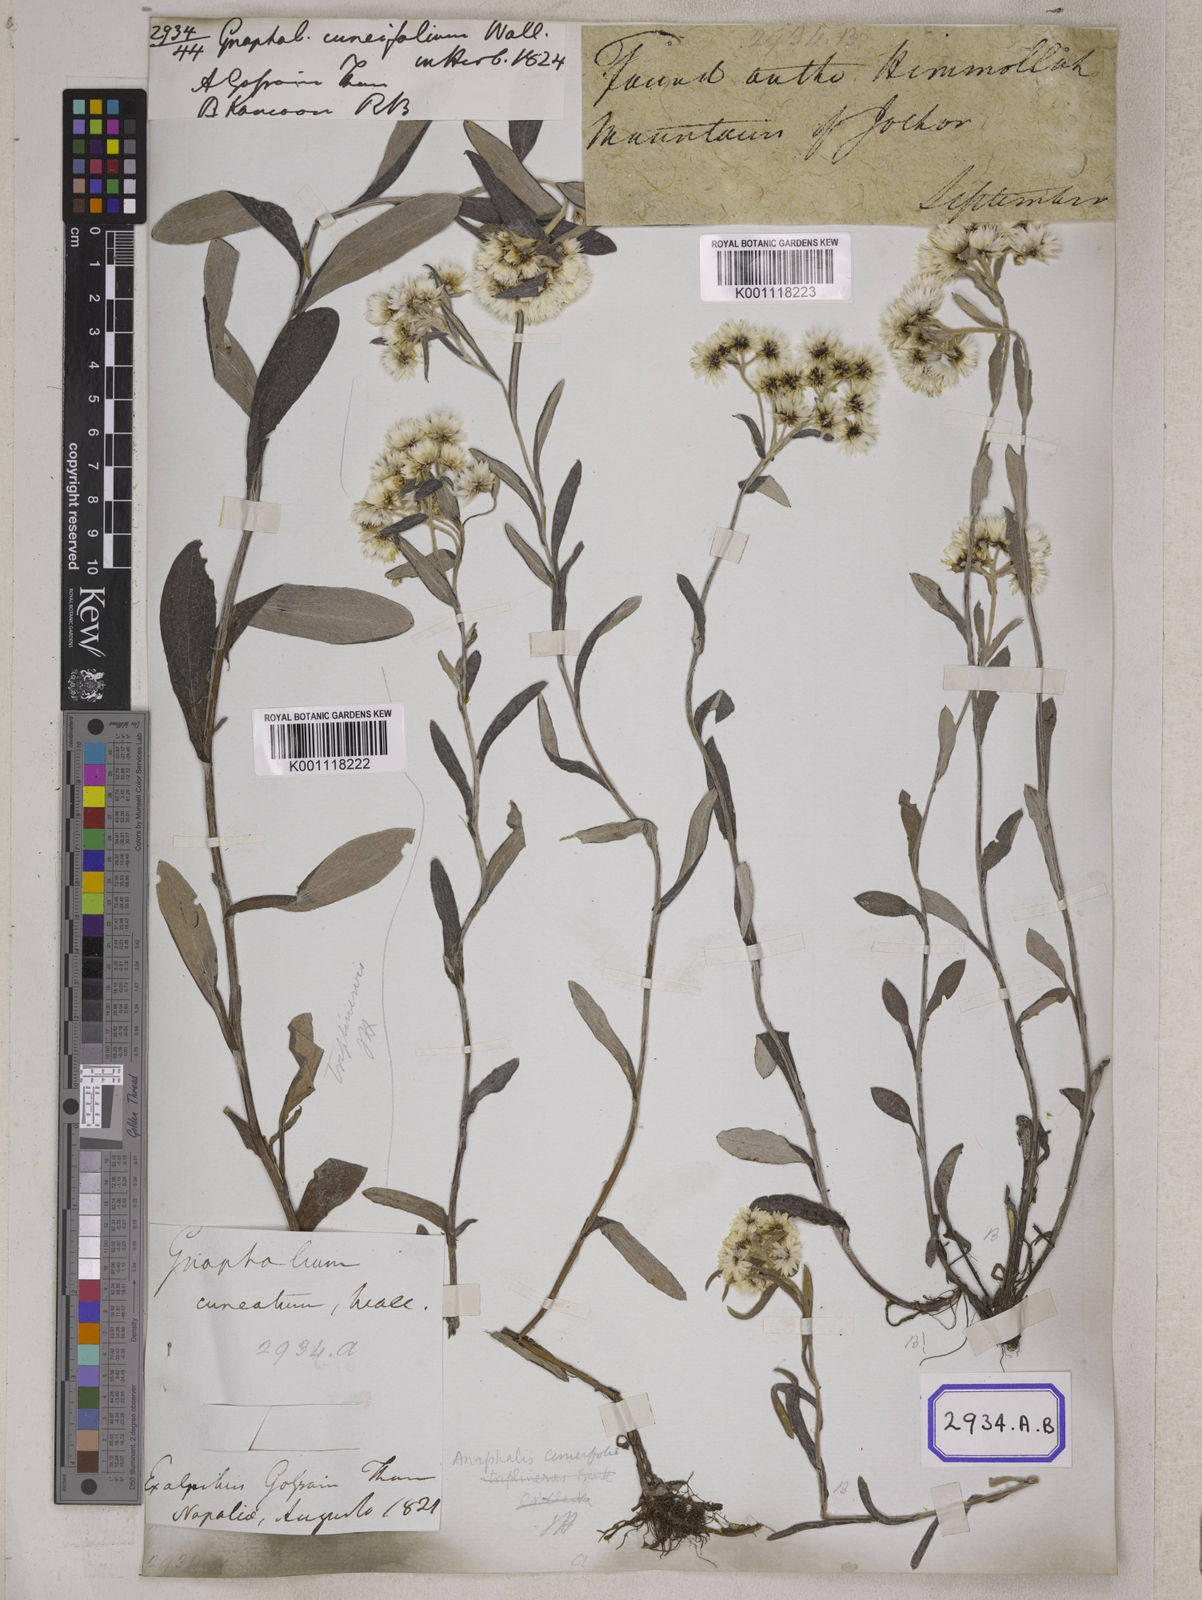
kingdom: Plantae
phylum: Tracheophyta
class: Magnoliopsida
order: Asterales
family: Asteraceae
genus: Anaphalis
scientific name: Anaphalis nepalensis
